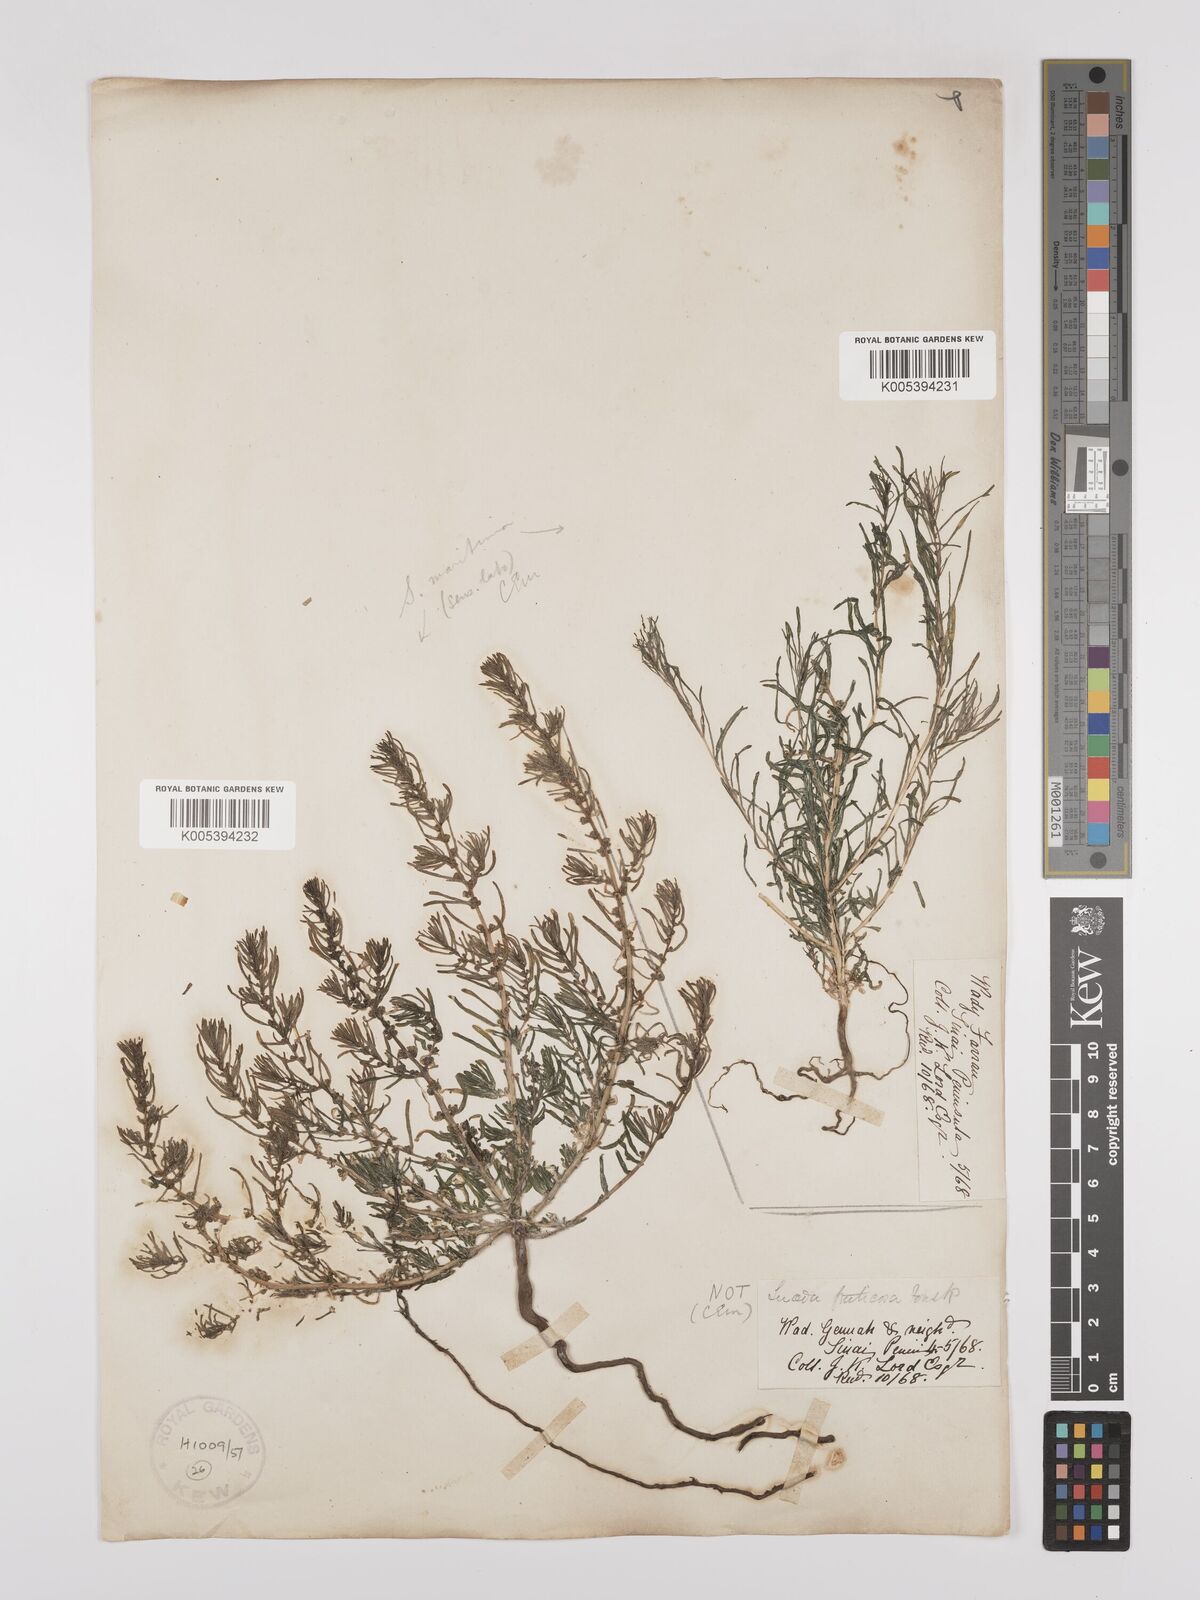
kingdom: Plantae
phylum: Tracheophyta
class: Magnoliopsida
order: Caryophyllales
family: Amaranthaceae
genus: Suaeda
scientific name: Suaeda
